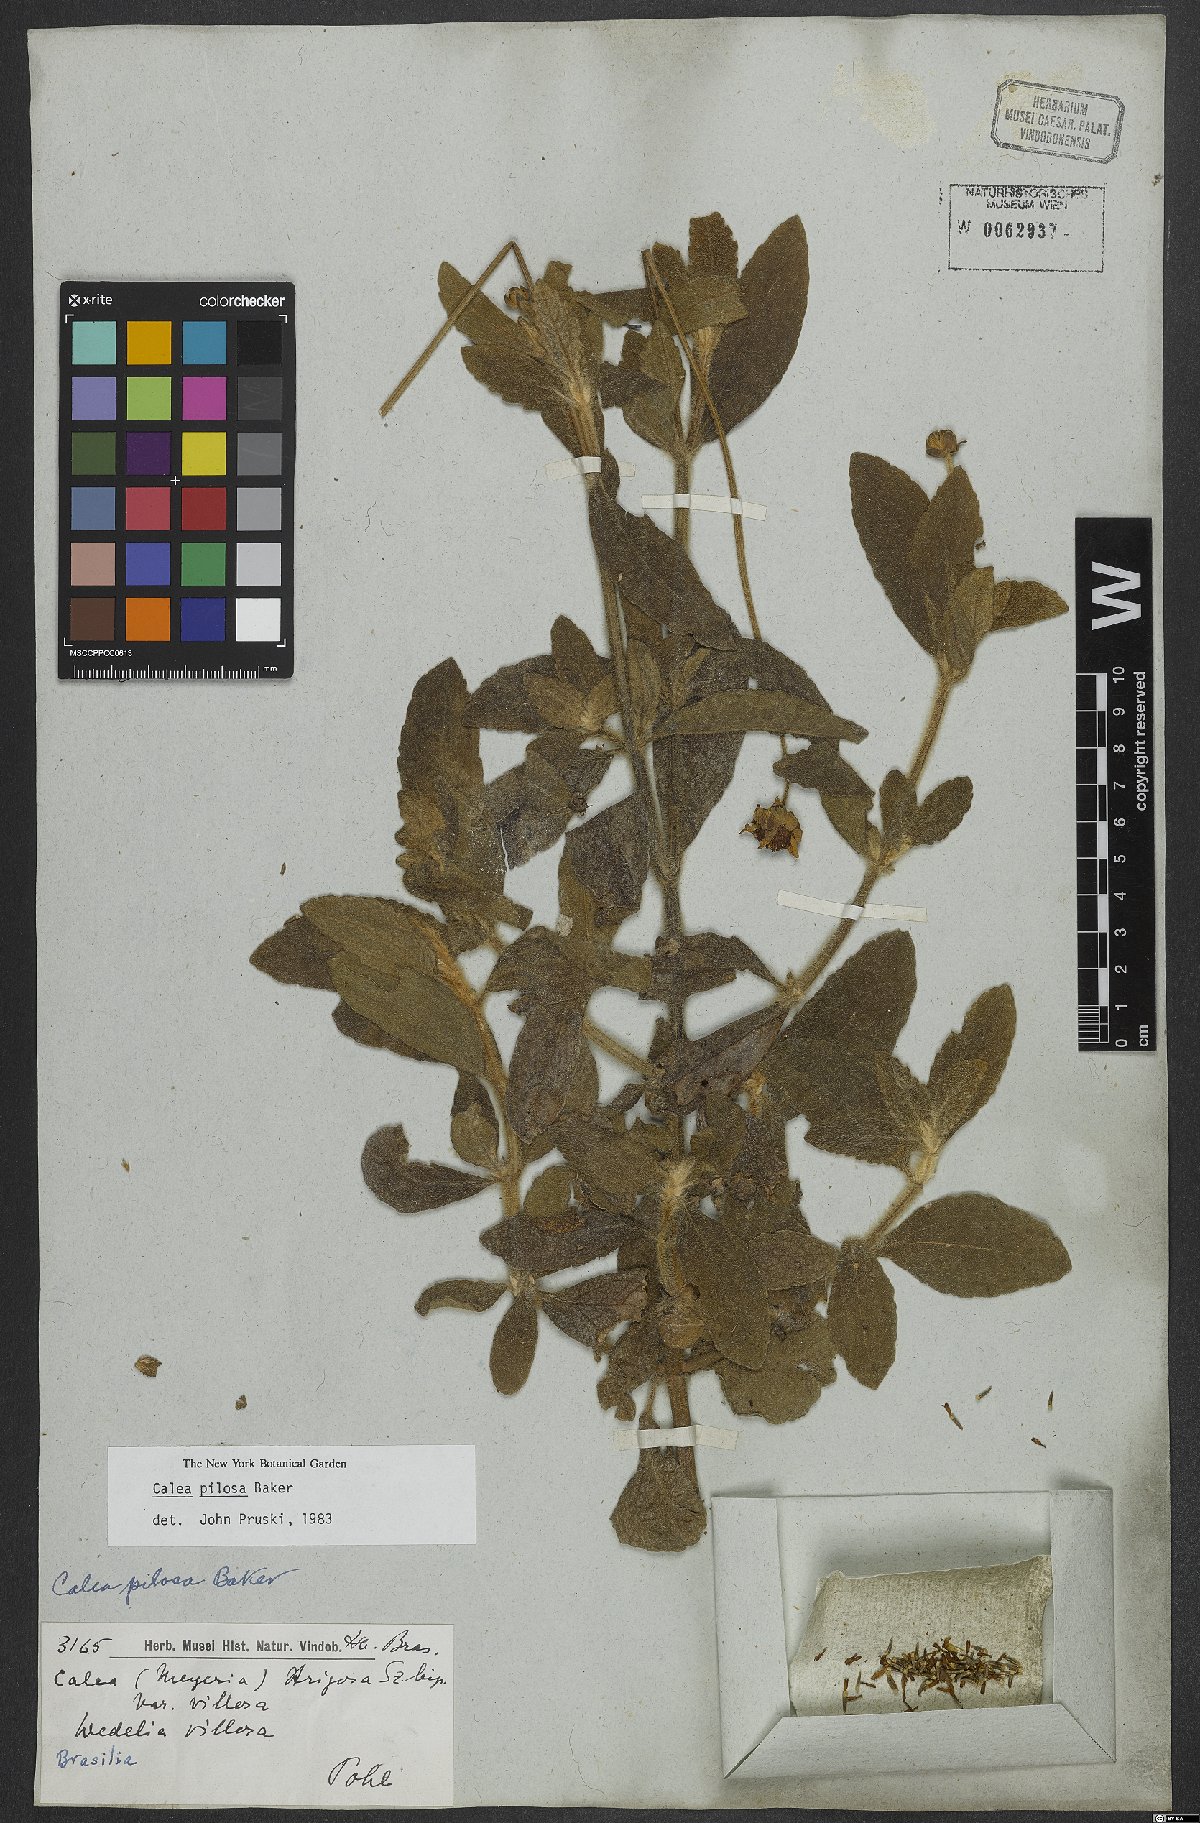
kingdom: Plantae
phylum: Tracheophyta
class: Magnoliopsida
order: Asterales
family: Asteraceae
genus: Calea
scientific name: Calea pilosa
